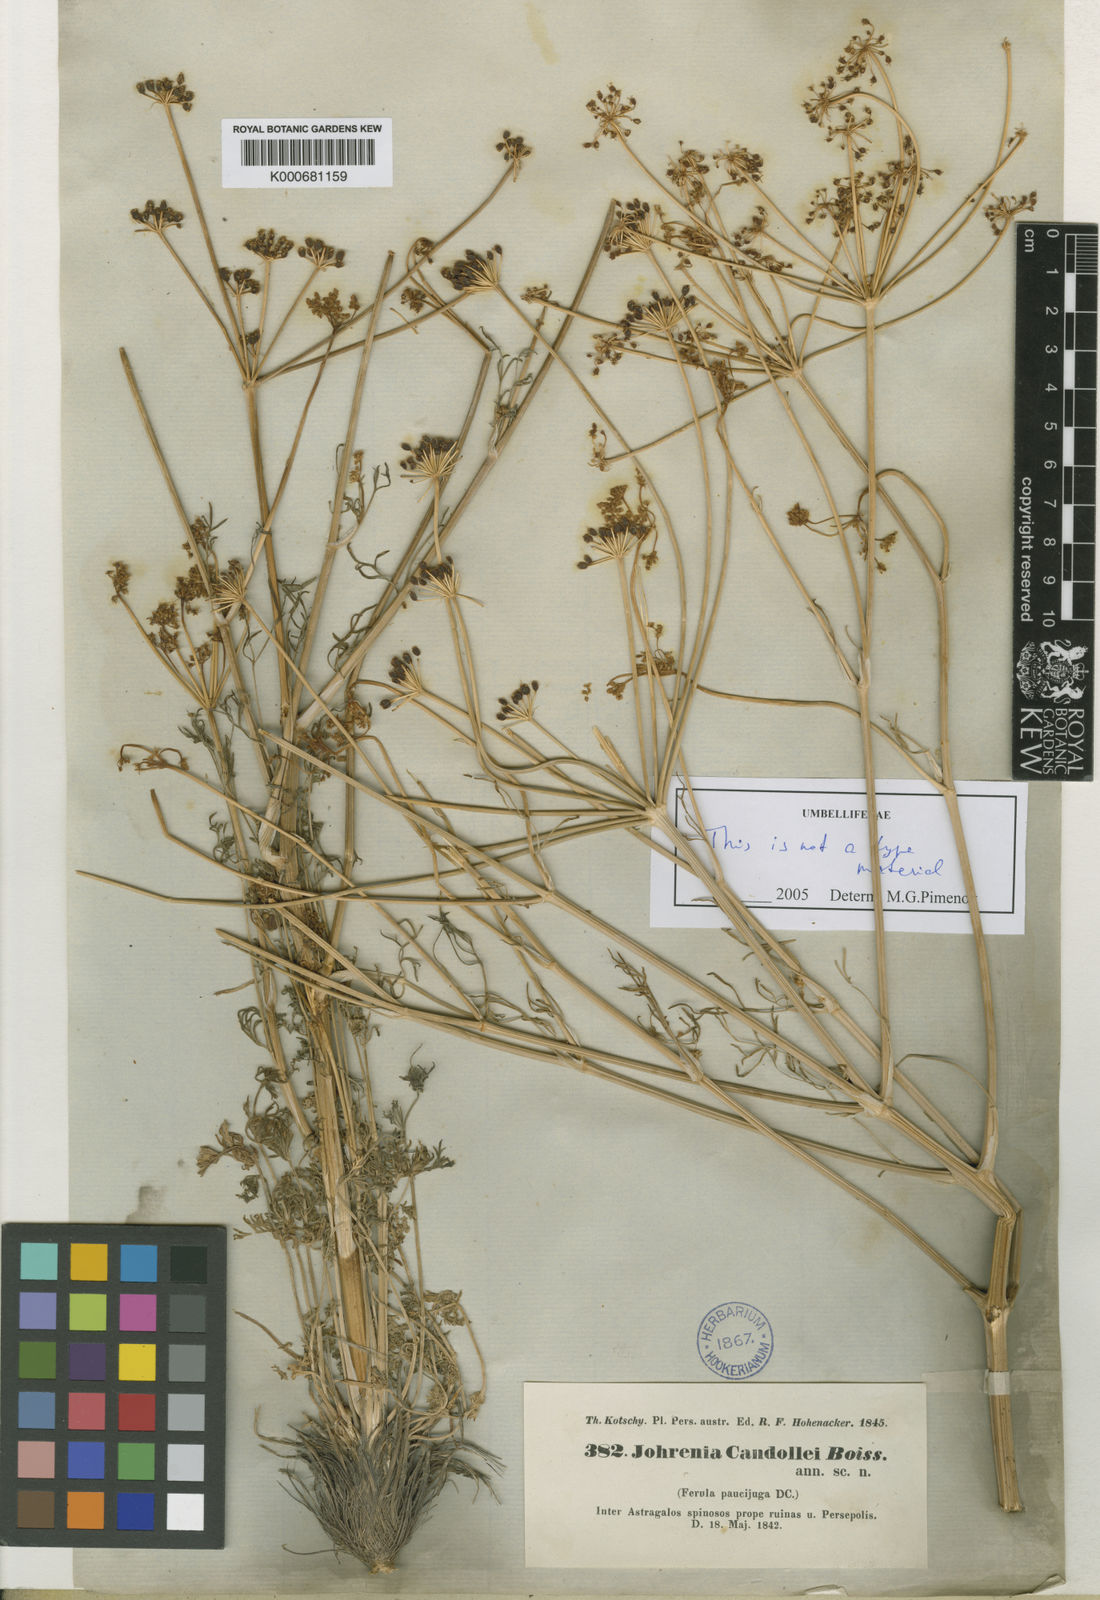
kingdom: Plantae
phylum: Tracheophyta
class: Magnoliopsida
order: Apiales
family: Apiaceae
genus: Dichoropetalum
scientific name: Dichoropetalum paucijugum
